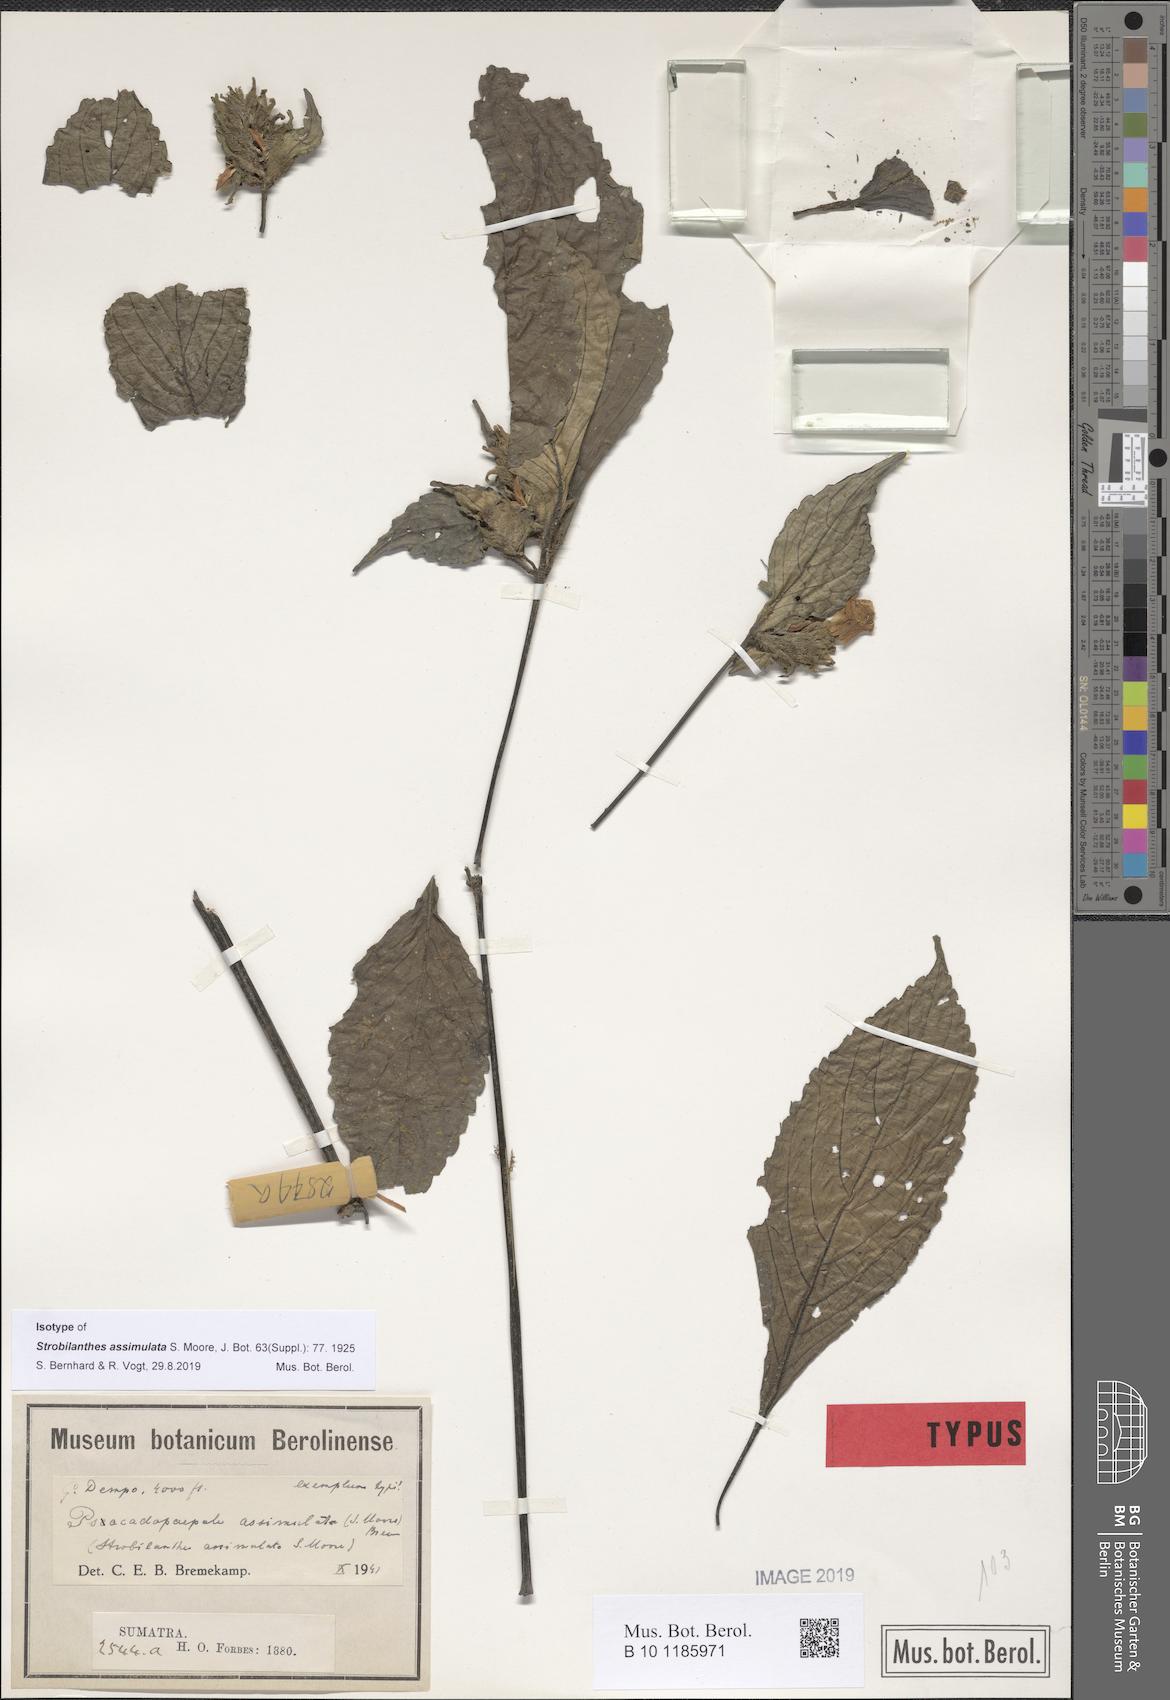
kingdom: Plantae
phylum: Tracheophyta
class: Magnoliopsida
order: Lamiales
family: Acanthaceae
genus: Strobilanthes
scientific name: Strobilanthes assimulata
